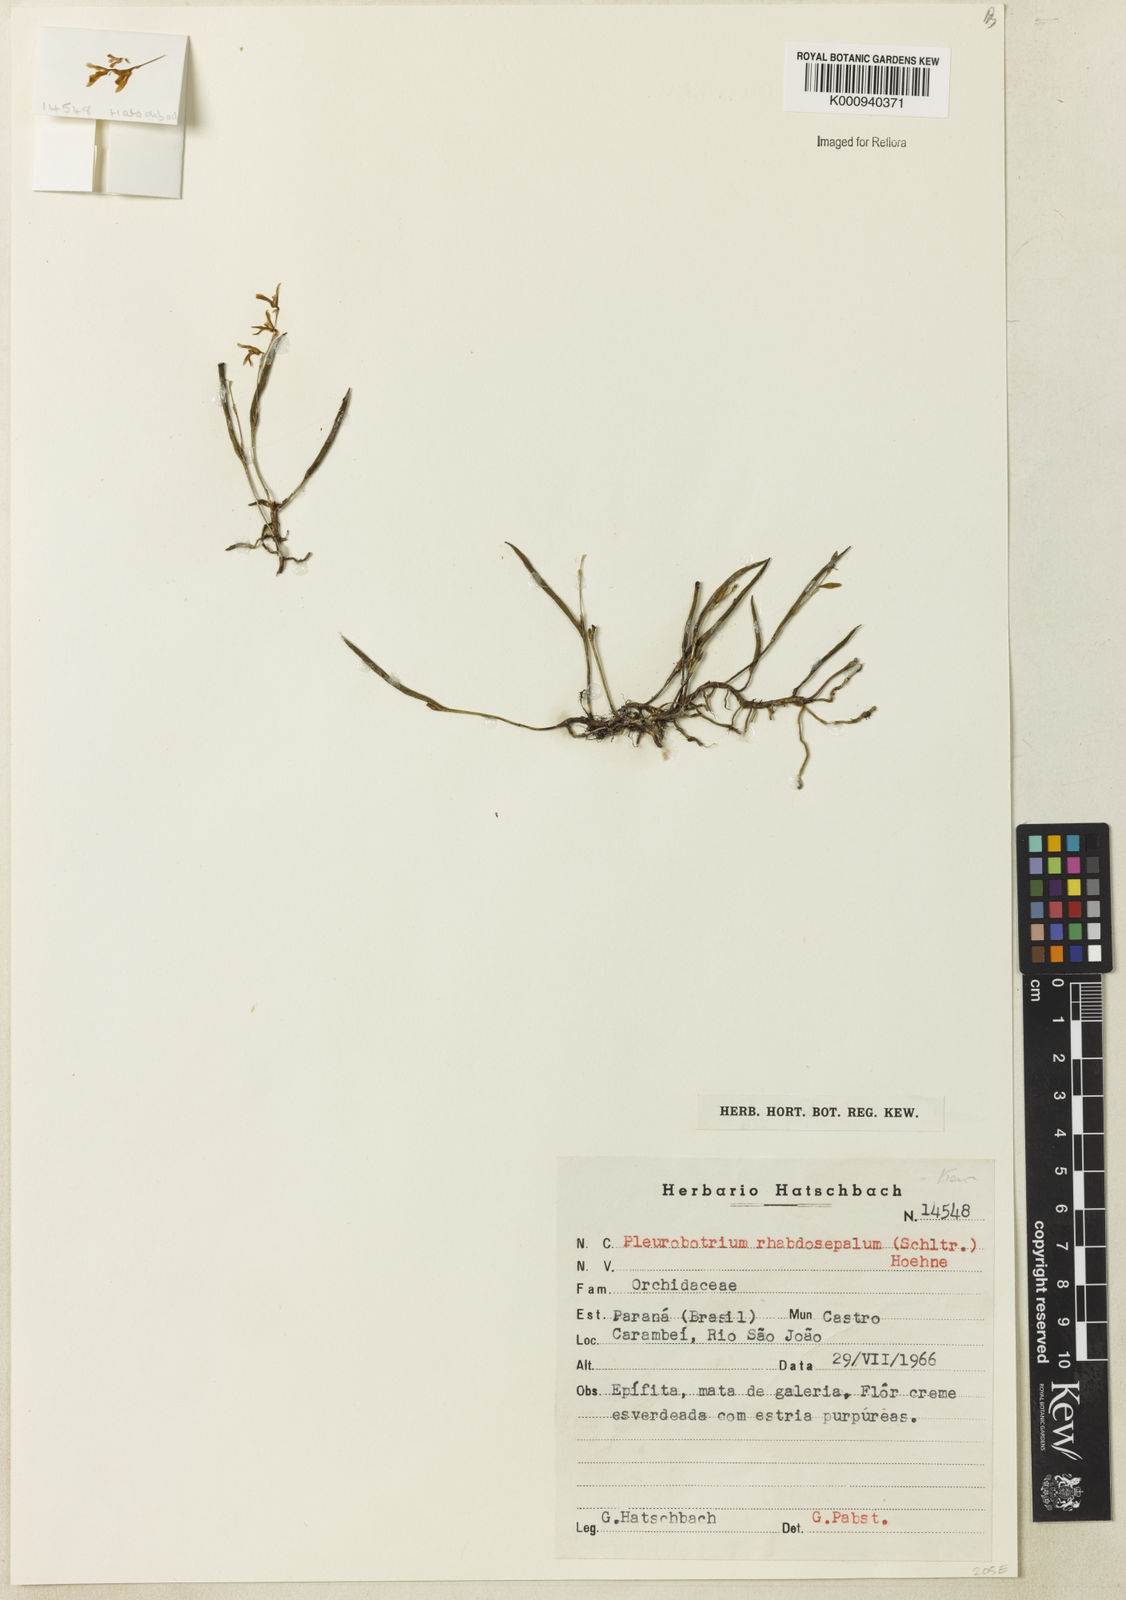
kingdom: Plantae
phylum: Tracheophyta
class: Liliopsida
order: Asparagales
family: Orchidaceae
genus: Pleurothallis
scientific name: Pleurothallis mantiquyrana
